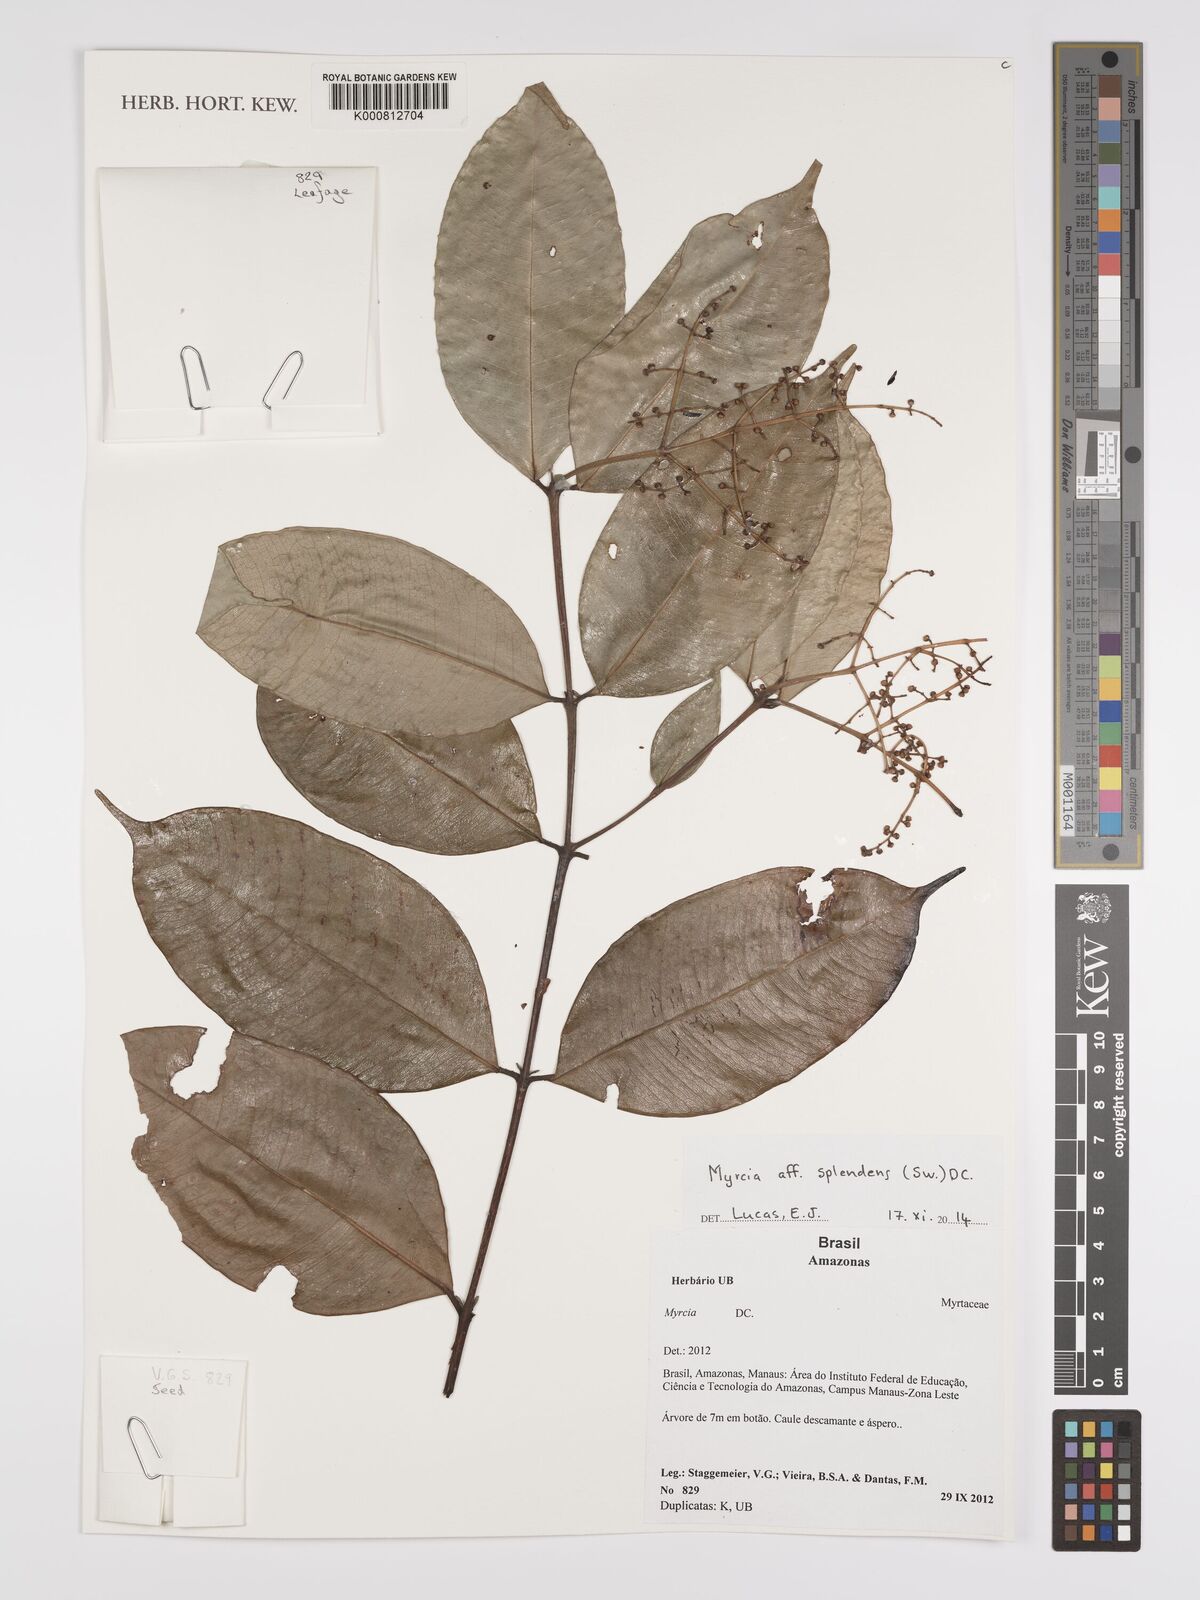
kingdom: Plantae
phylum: Tracheophyta
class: Magnoliopsida
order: Myrtales
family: Myrtaceae
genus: Myrcia
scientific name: Myrcia splendens
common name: Surinam cherry
